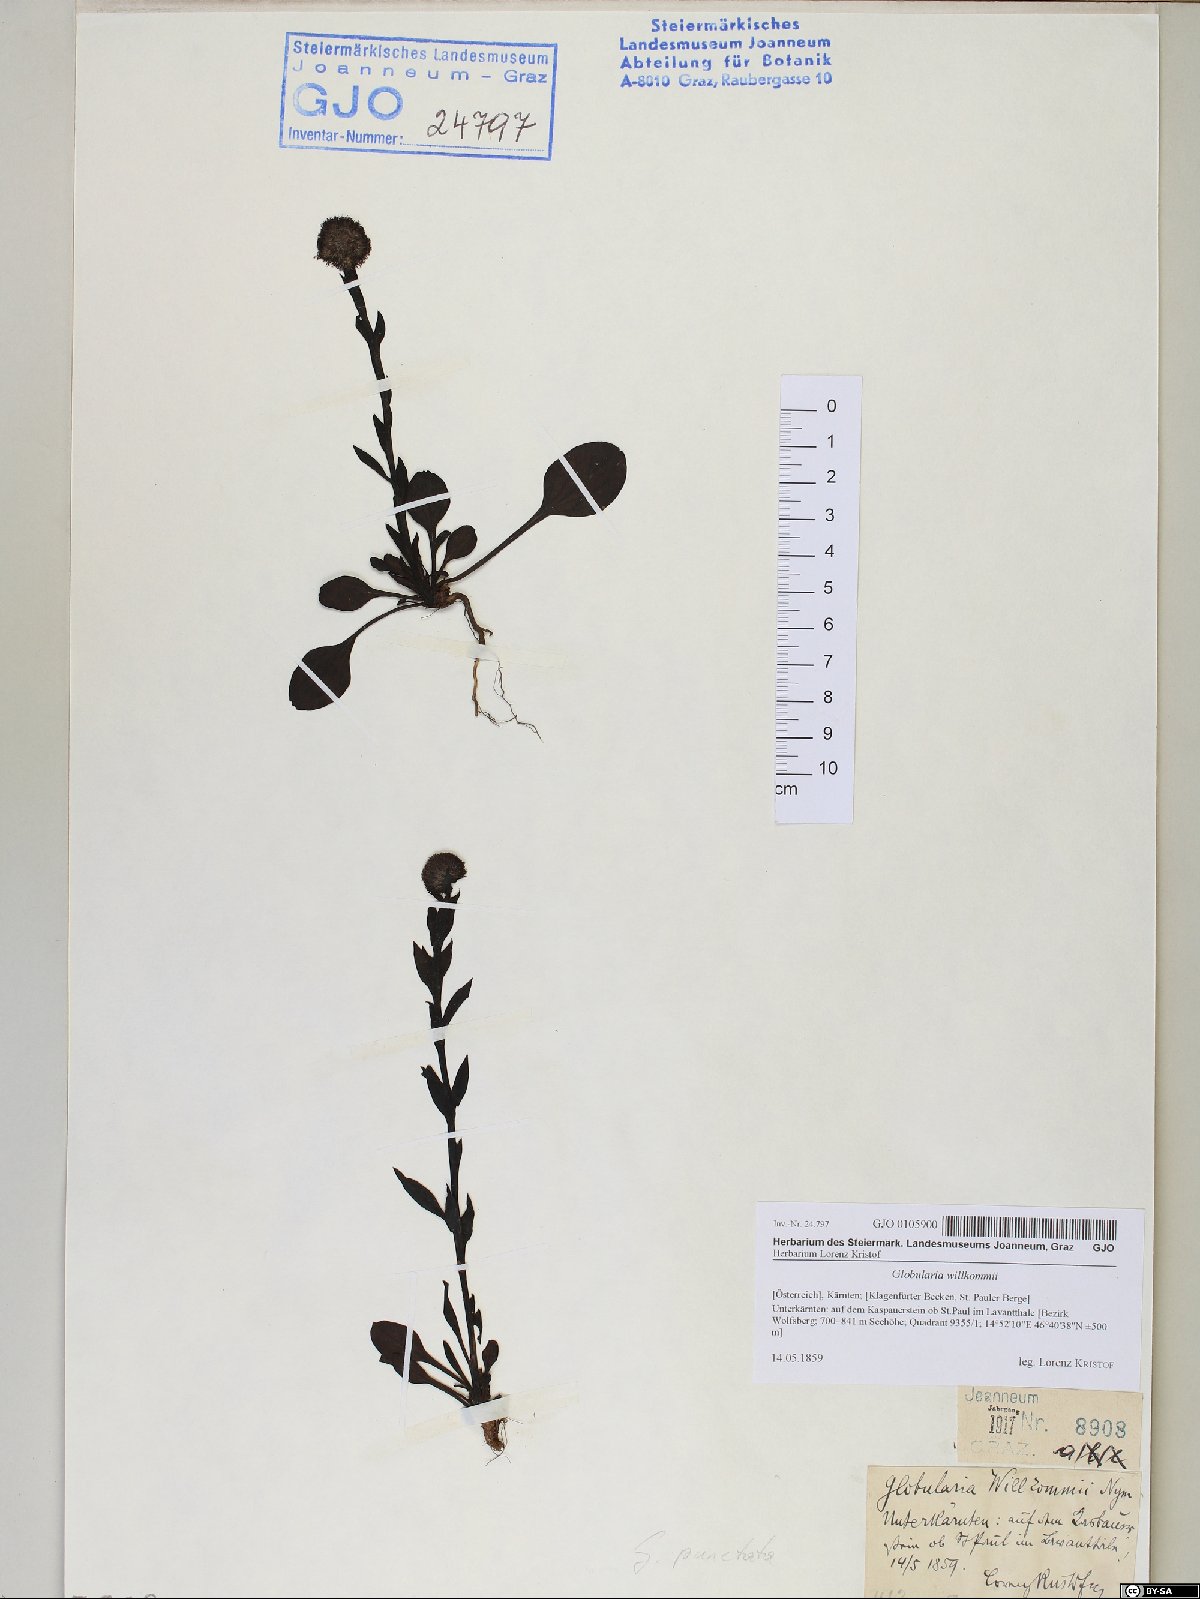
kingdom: Plantae
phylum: Tracheophyta
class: Magnoliopsida
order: Lamiales
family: Plantaginaceae
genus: Globularia
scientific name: Globularia bisnagarica
